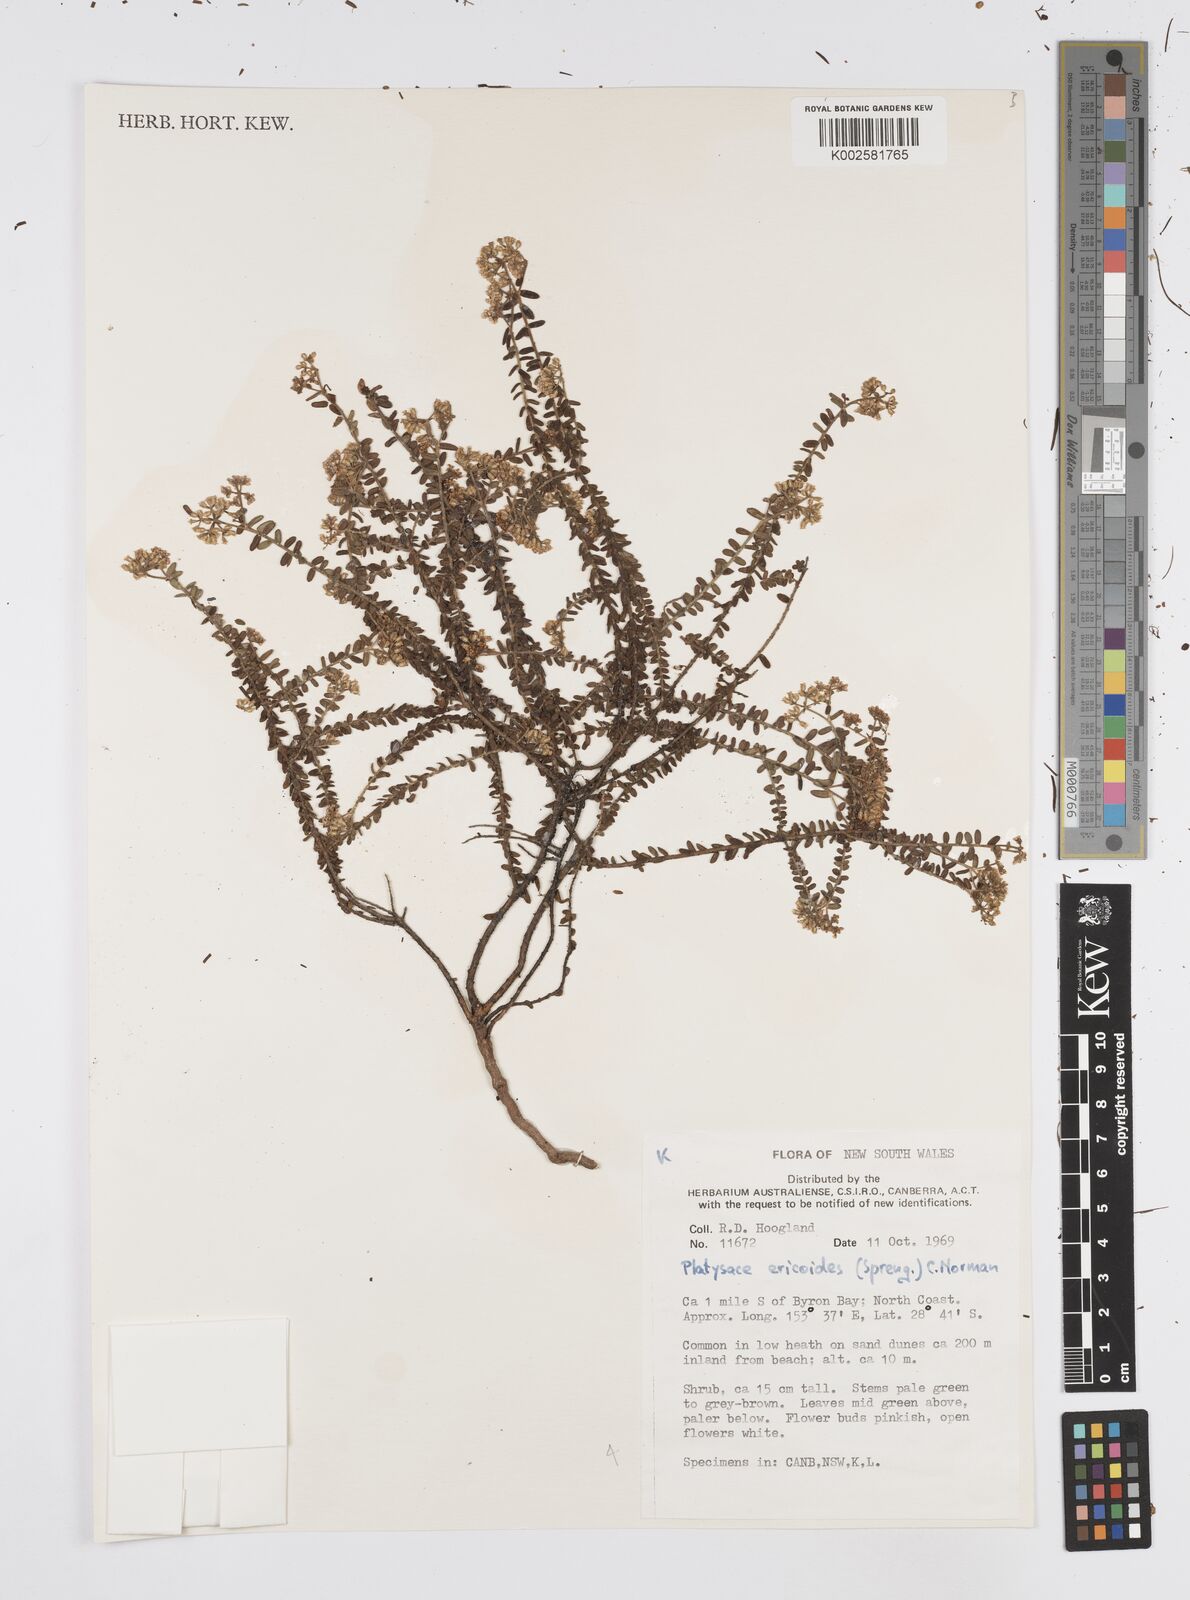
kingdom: Plantae
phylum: Tracheophyta
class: Magnoliopsida
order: Apiales
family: Apiaceae
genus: Platysace
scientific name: Platysace ericoides
